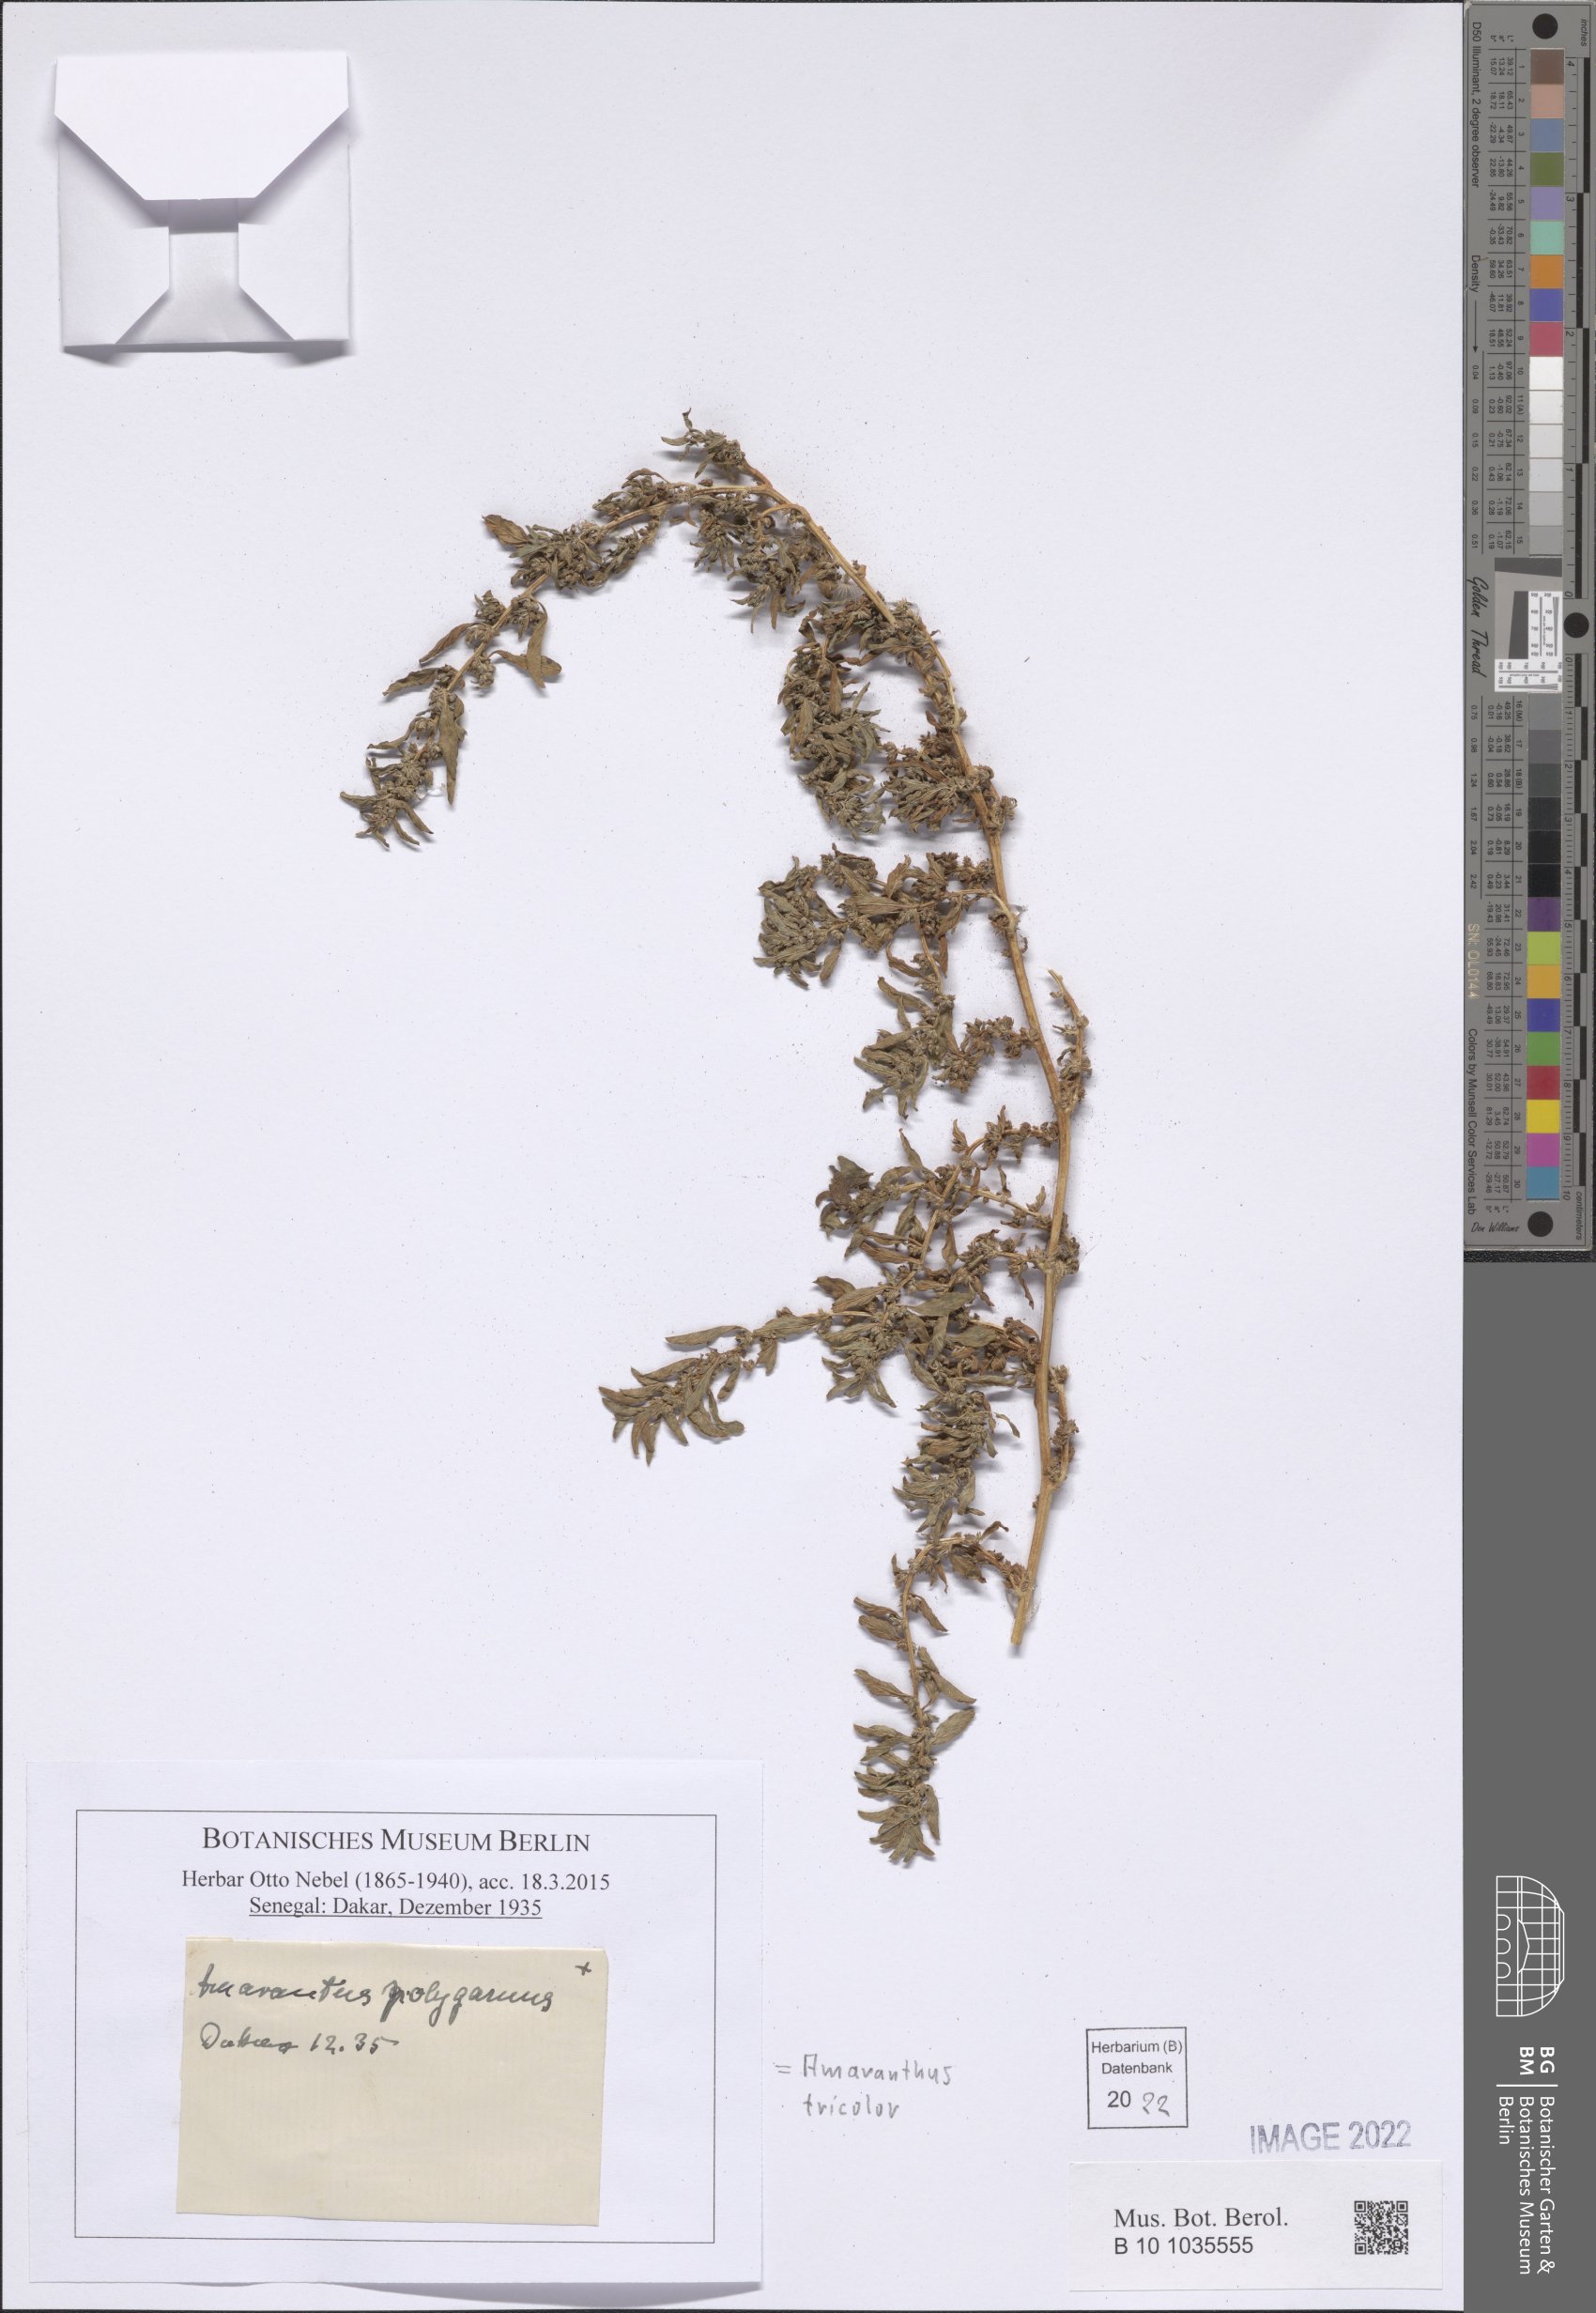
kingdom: Plantae
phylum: Tracheophyta
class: Magnoliopsida
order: Caryophyllales
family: Amaranthaceae
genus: Amaranthus
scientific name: Amaranthus tricolor
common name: Joseph's-coat
